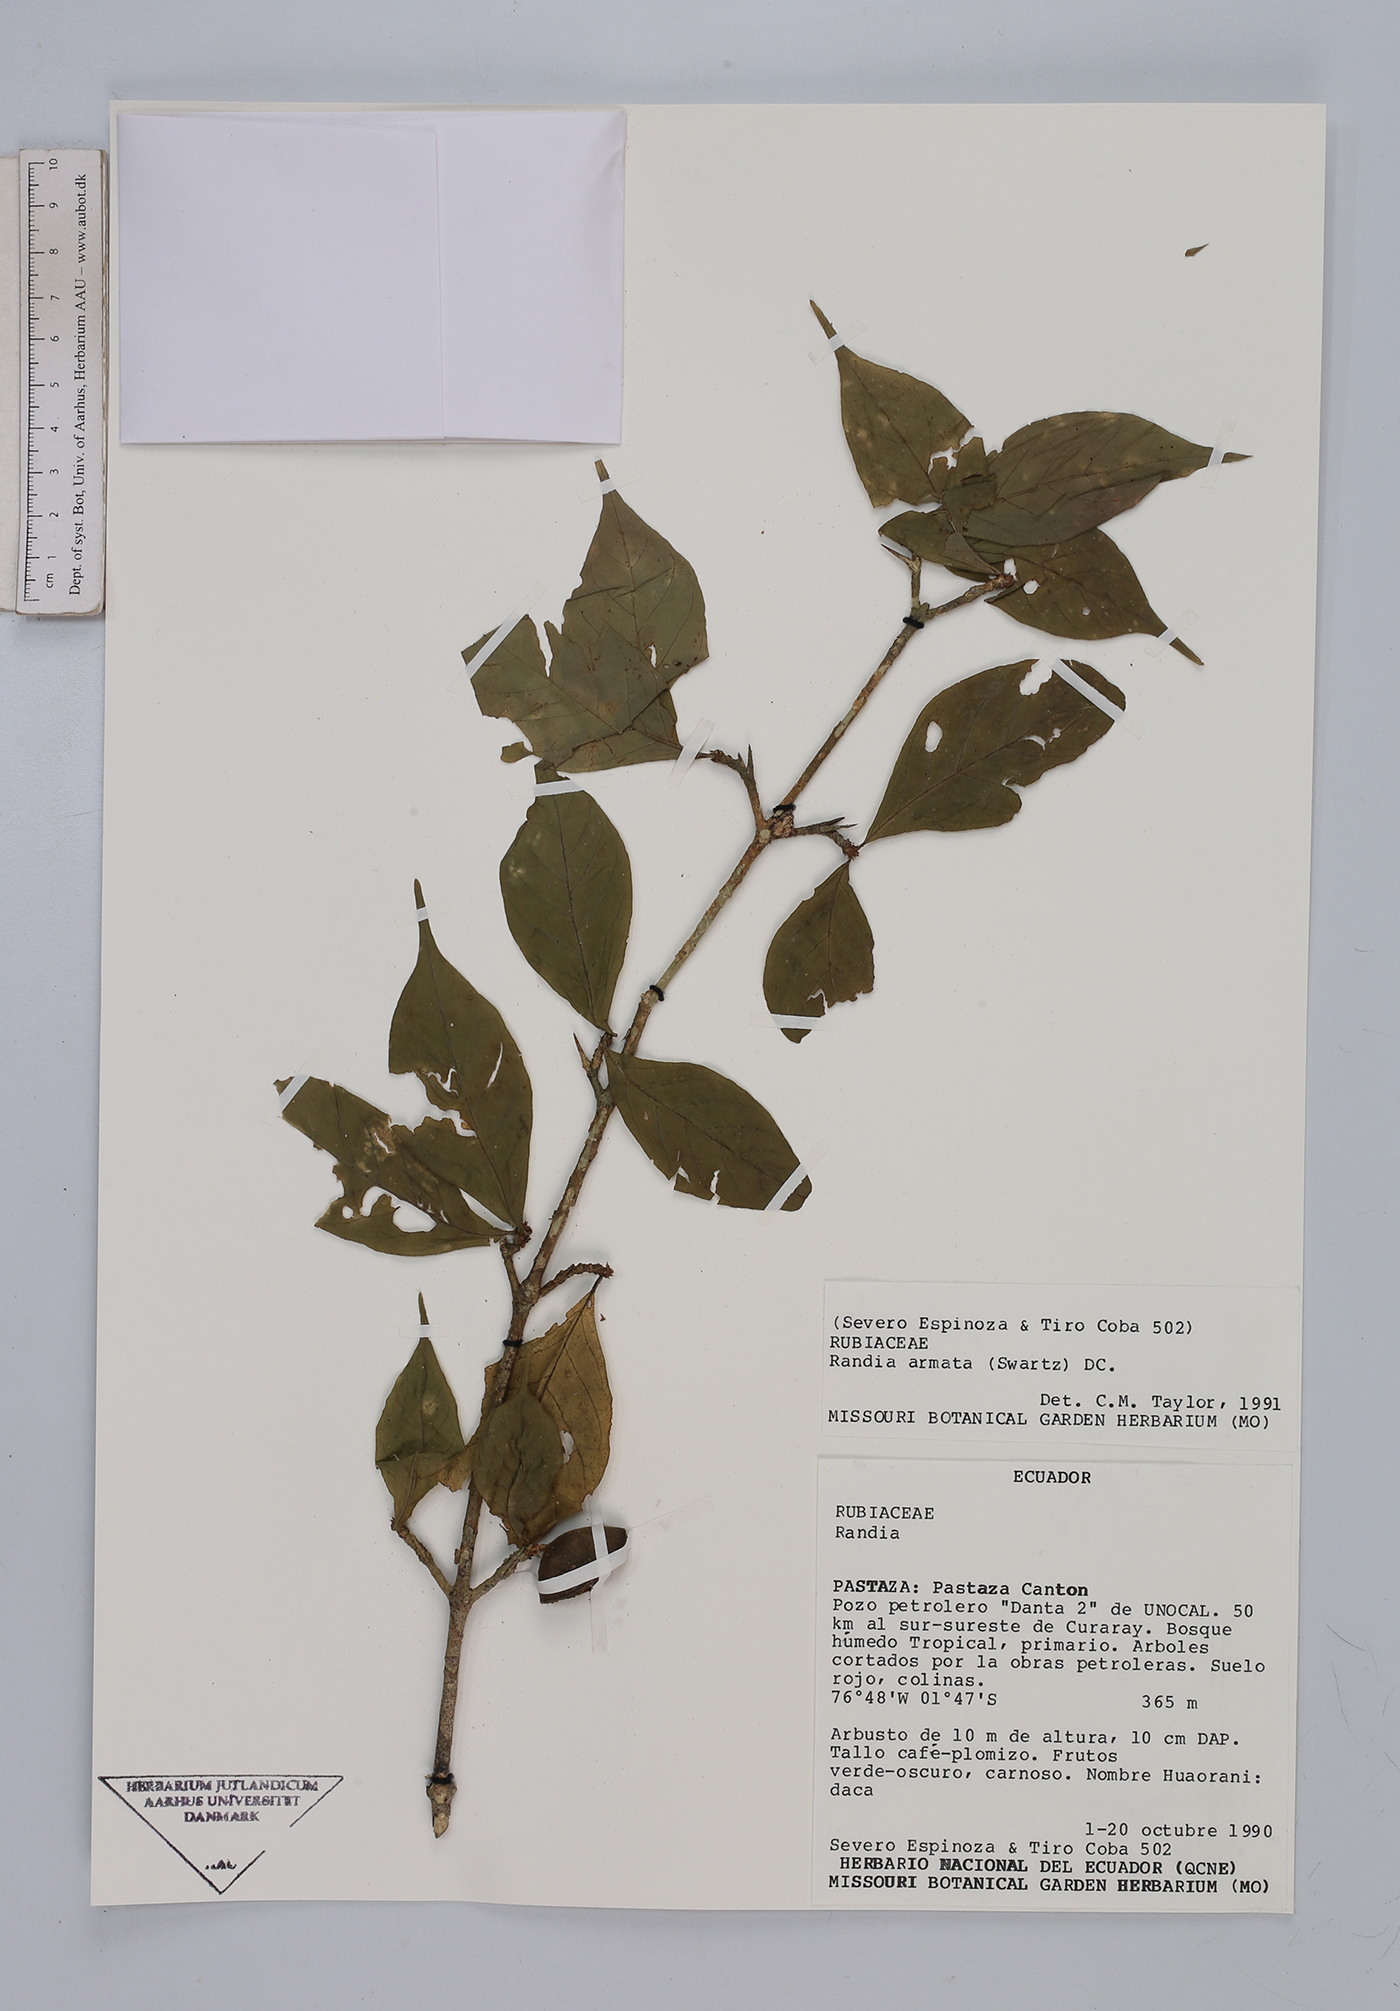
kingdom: Plantae
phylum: Tracheophyta
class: Magnoliopsida
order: Gentianales
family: Rubiaceae
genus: Randia
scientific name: Randia armata
